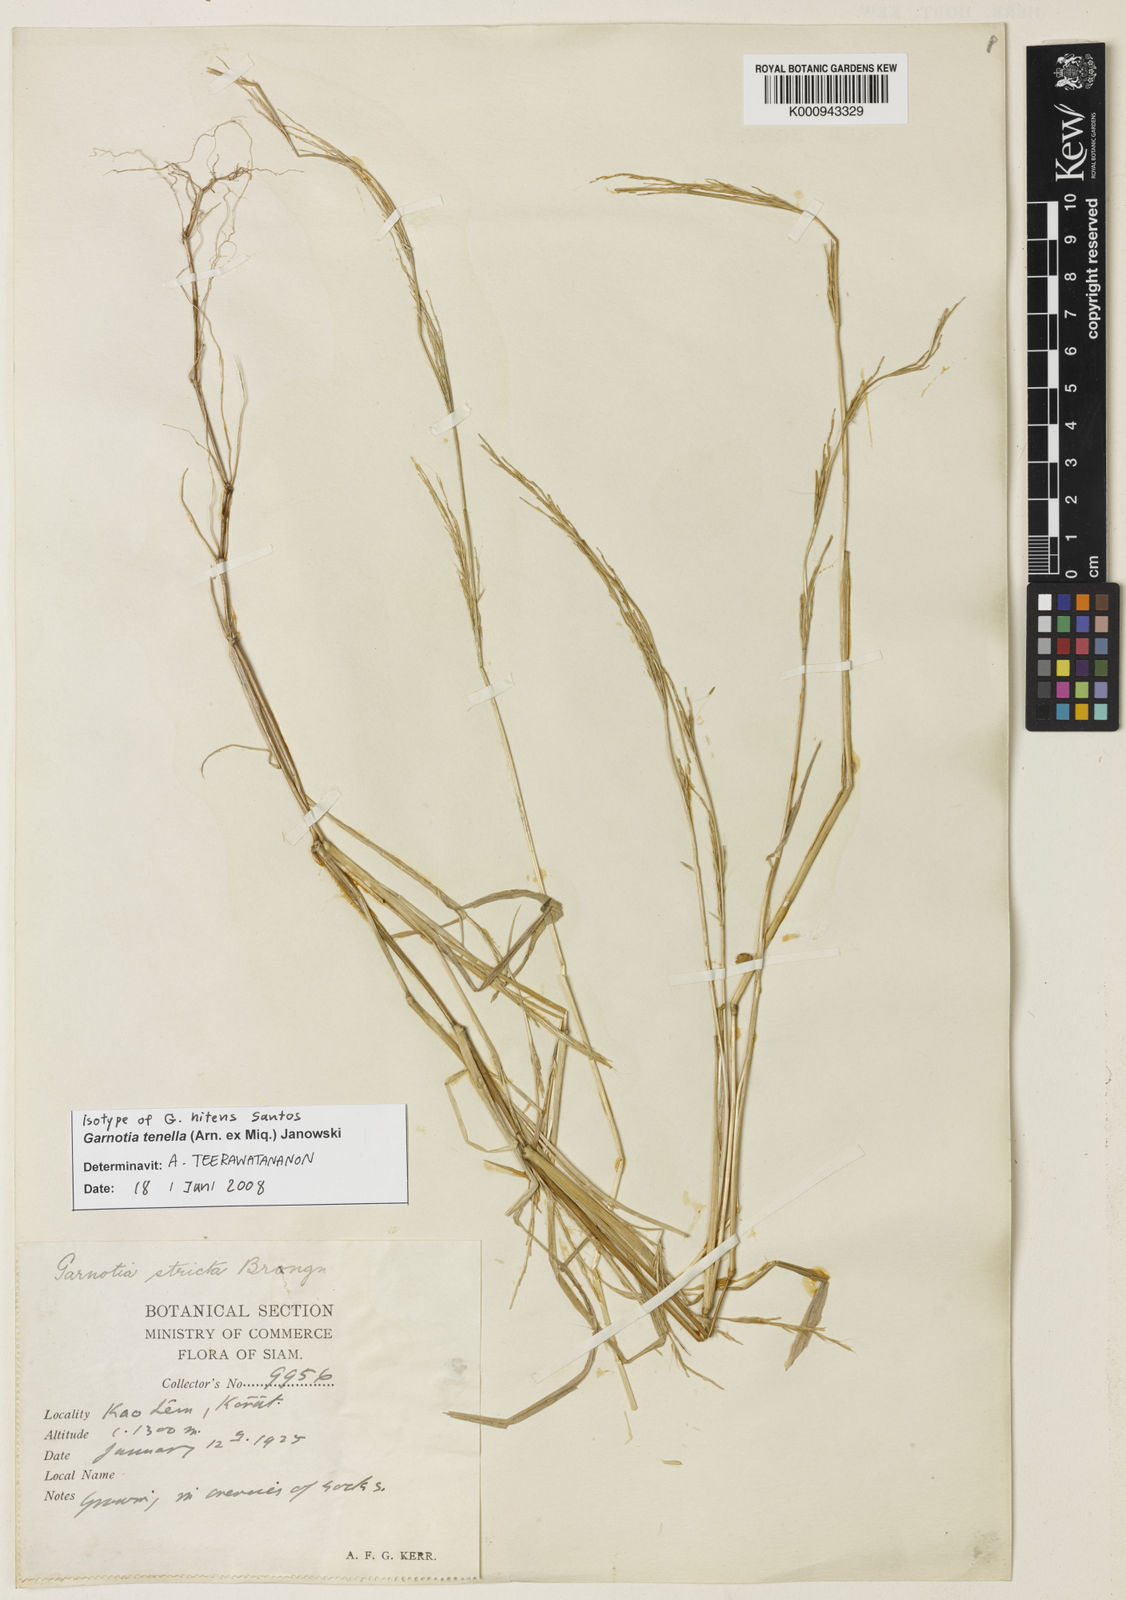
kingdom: Plantae
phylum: Tracheophyta
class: Liliopsida
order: Poales
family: Poaceae
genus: Garnotia
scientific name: Garnotia stricta
